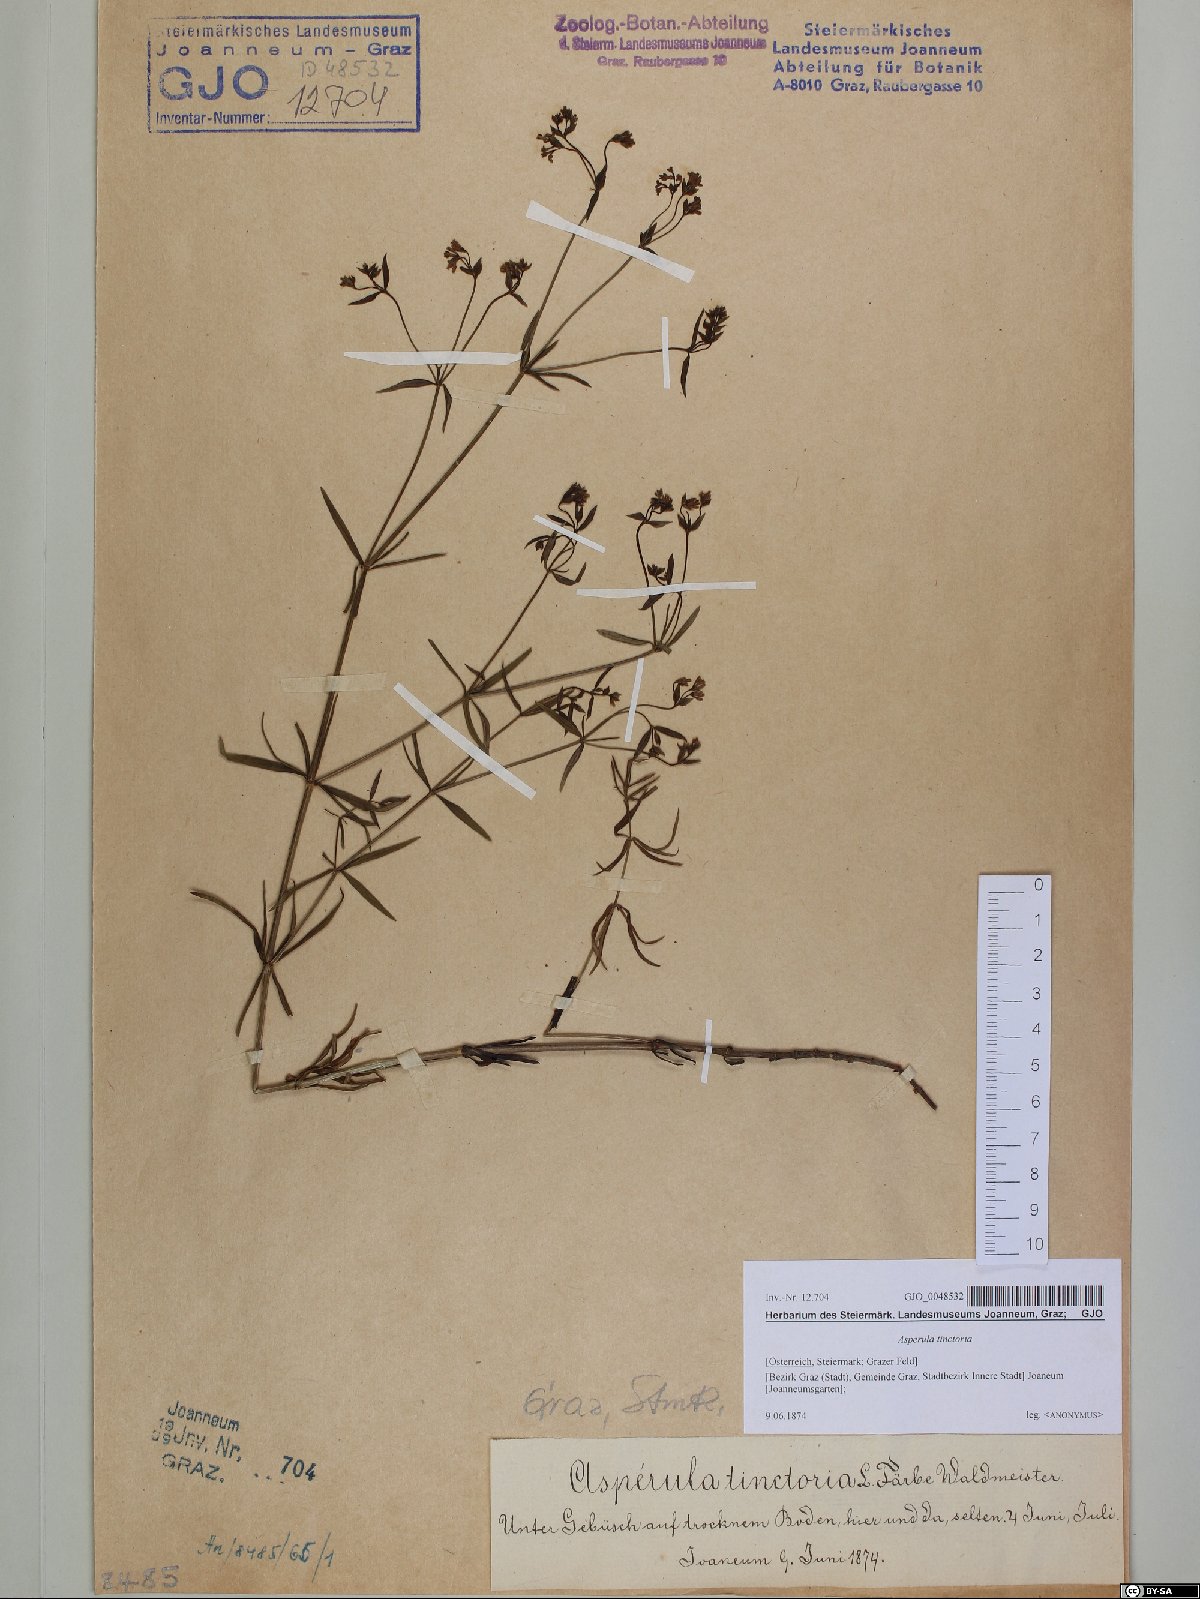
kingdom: Plantae
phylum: Tracheophyta
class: Magnoliopsida
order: Gentianales
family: Rubiaceae
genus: Asperula
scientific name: Asperula tinctoria
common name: Dyer's woodruff
